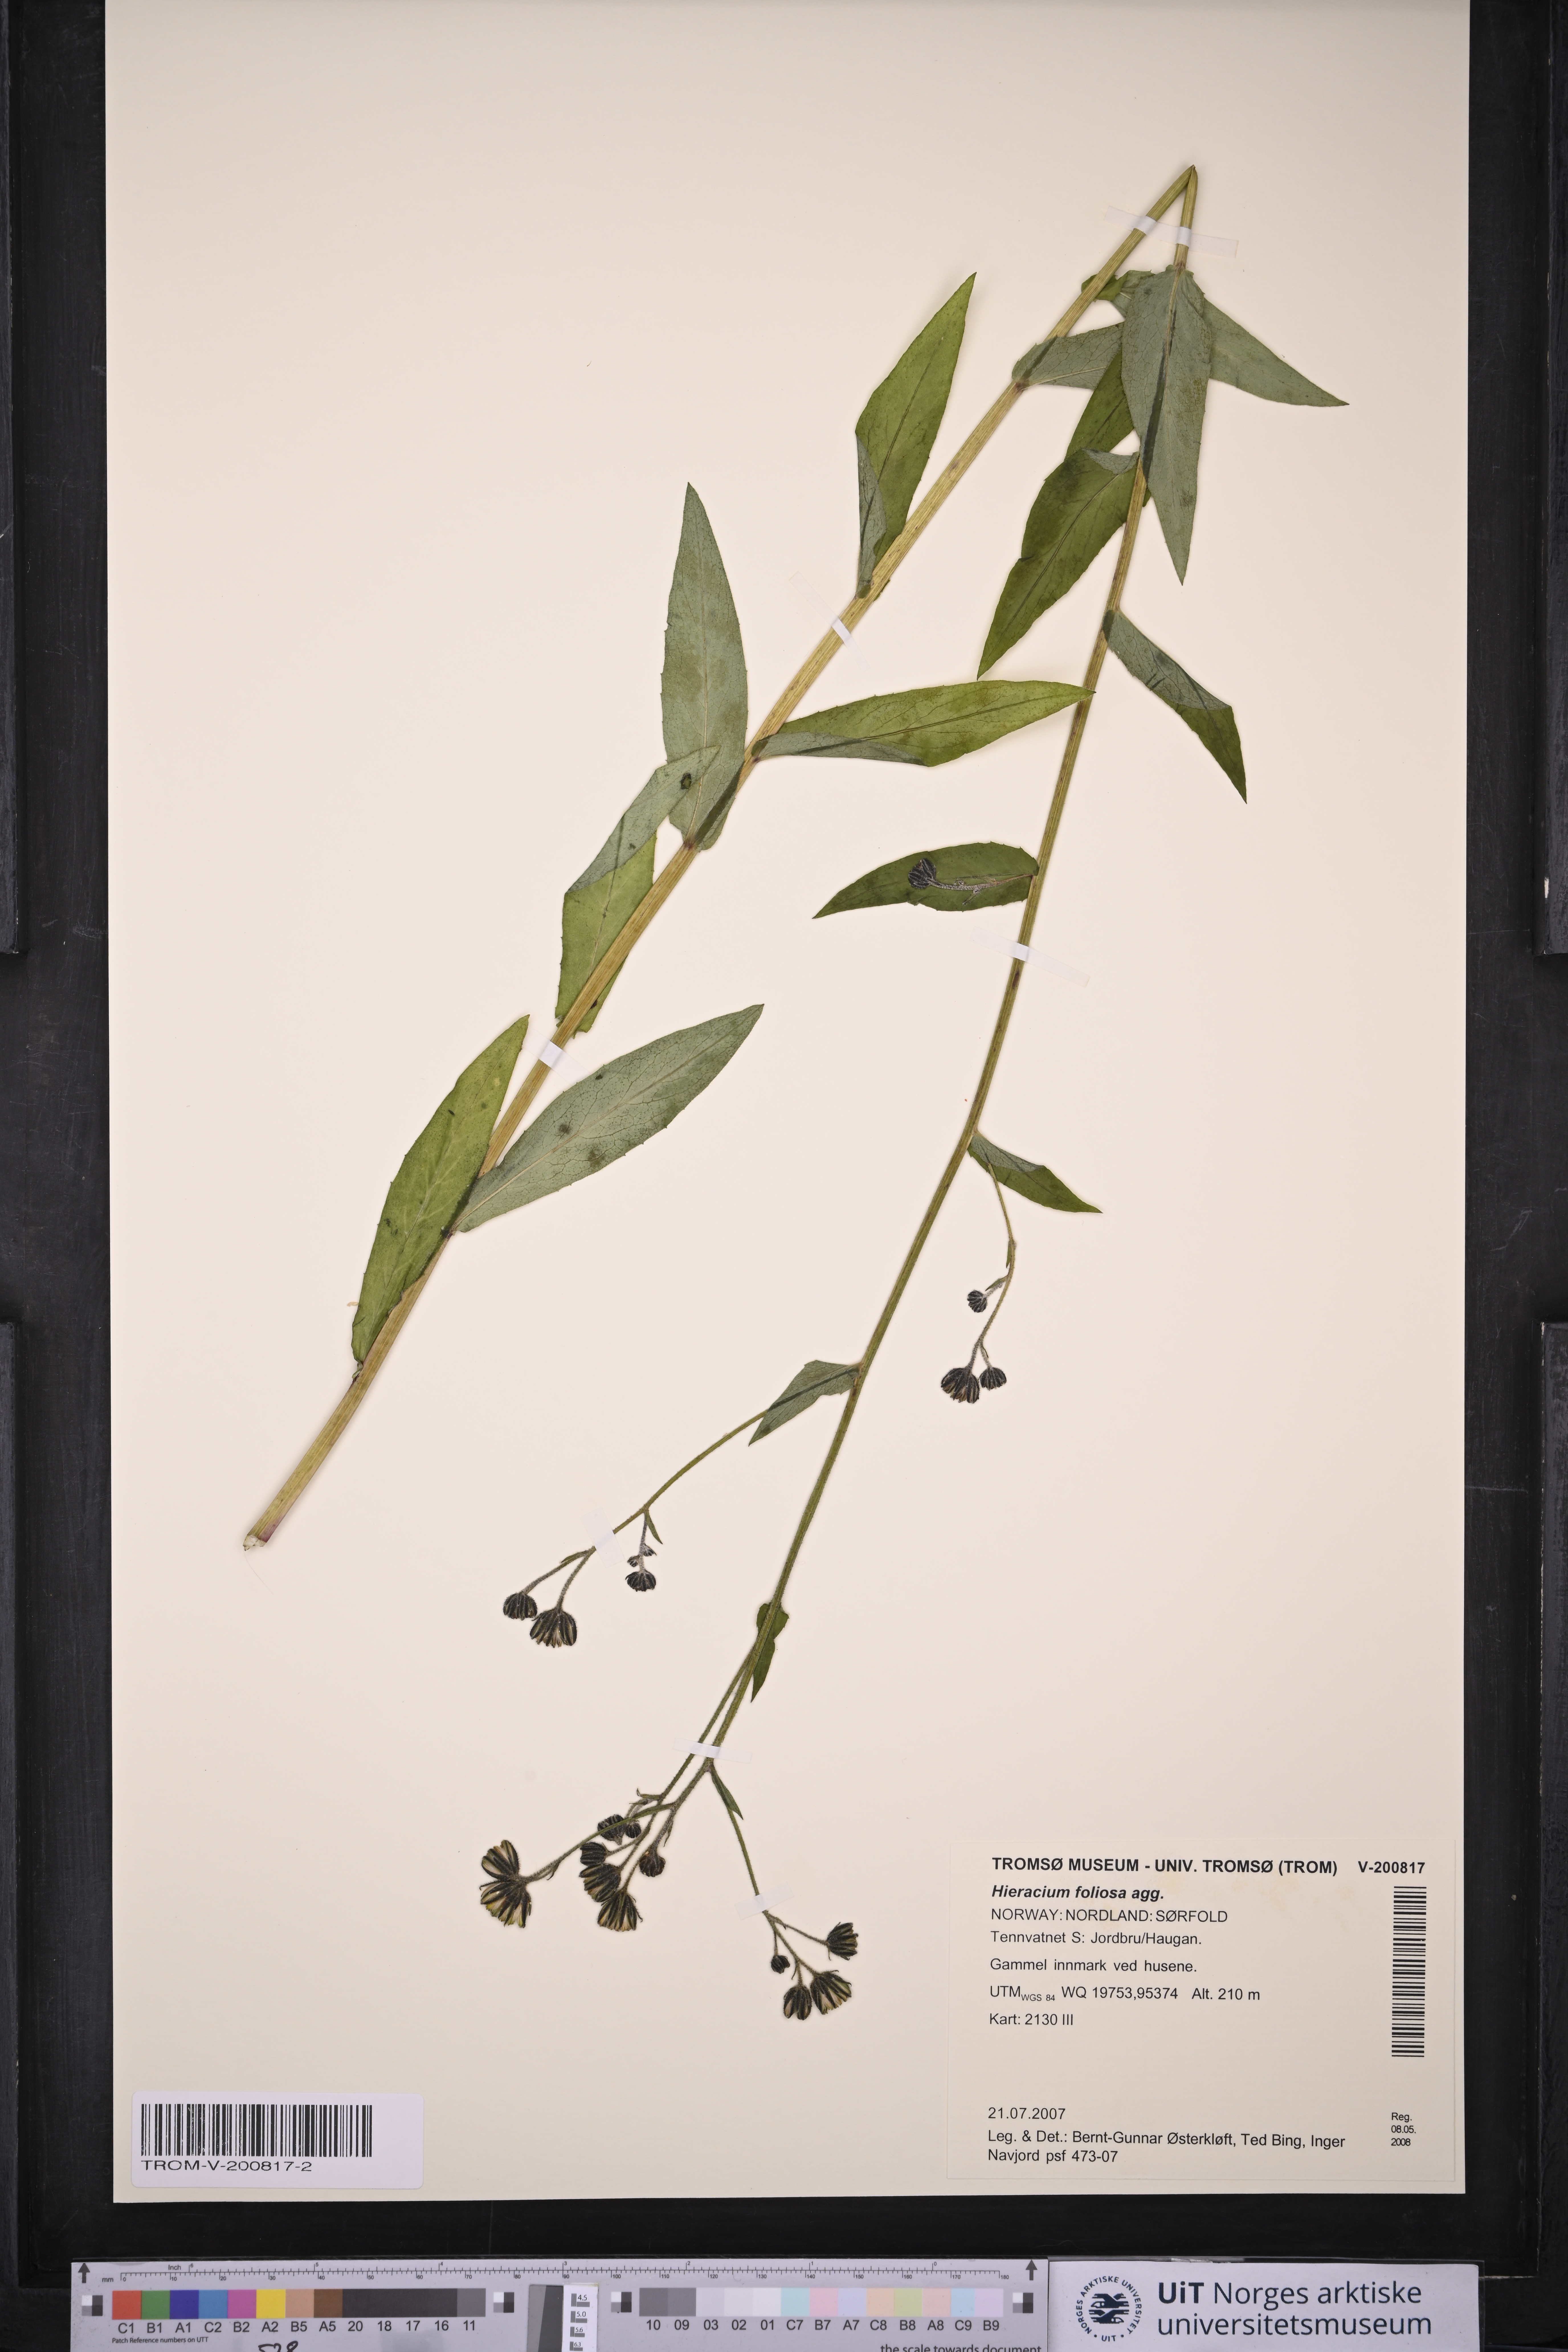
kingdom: Plantae
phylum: Tracheophyta
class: Magnoliopsida
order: Asterales
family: Asteraceae
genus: Hieracium
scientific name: Hieracium prenanthoides
